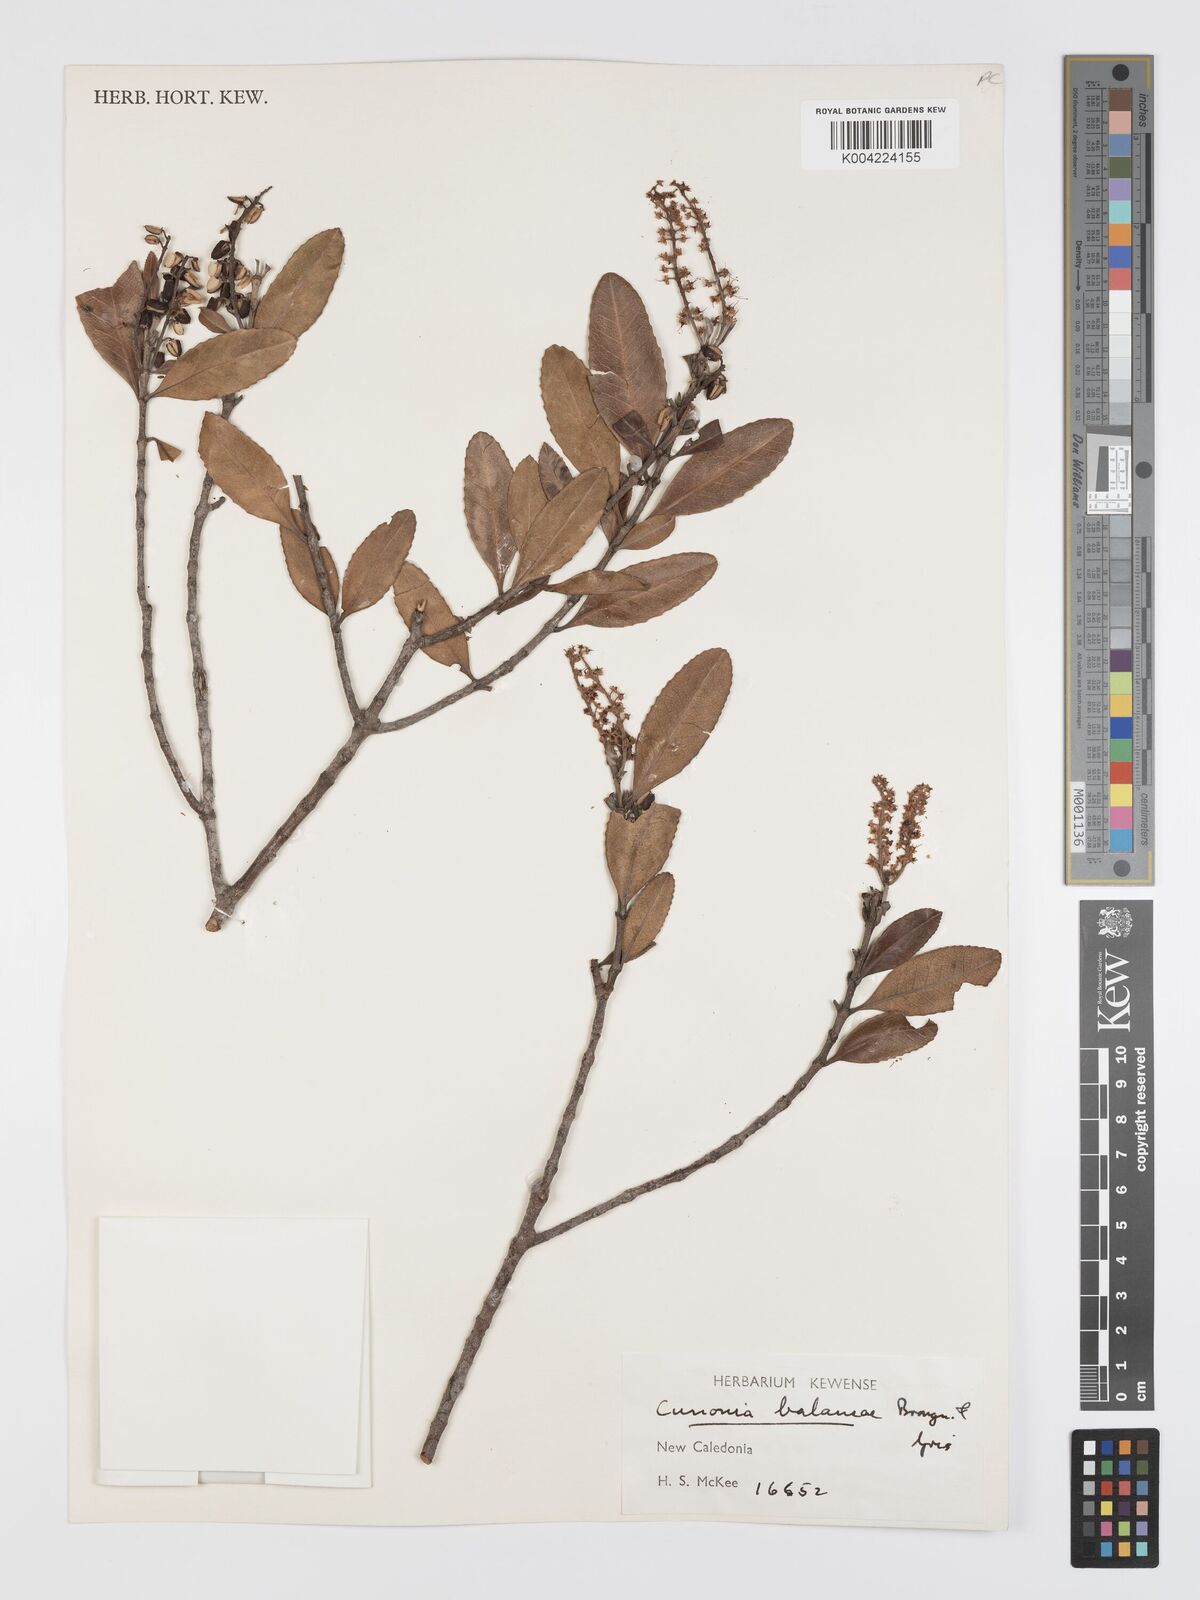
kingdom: Plantae
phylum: Tracheophyta
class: Magnoliopsida
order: Oxalidales
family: Cunoniaceae
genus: Cunonia
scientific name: Cunonia balansae
